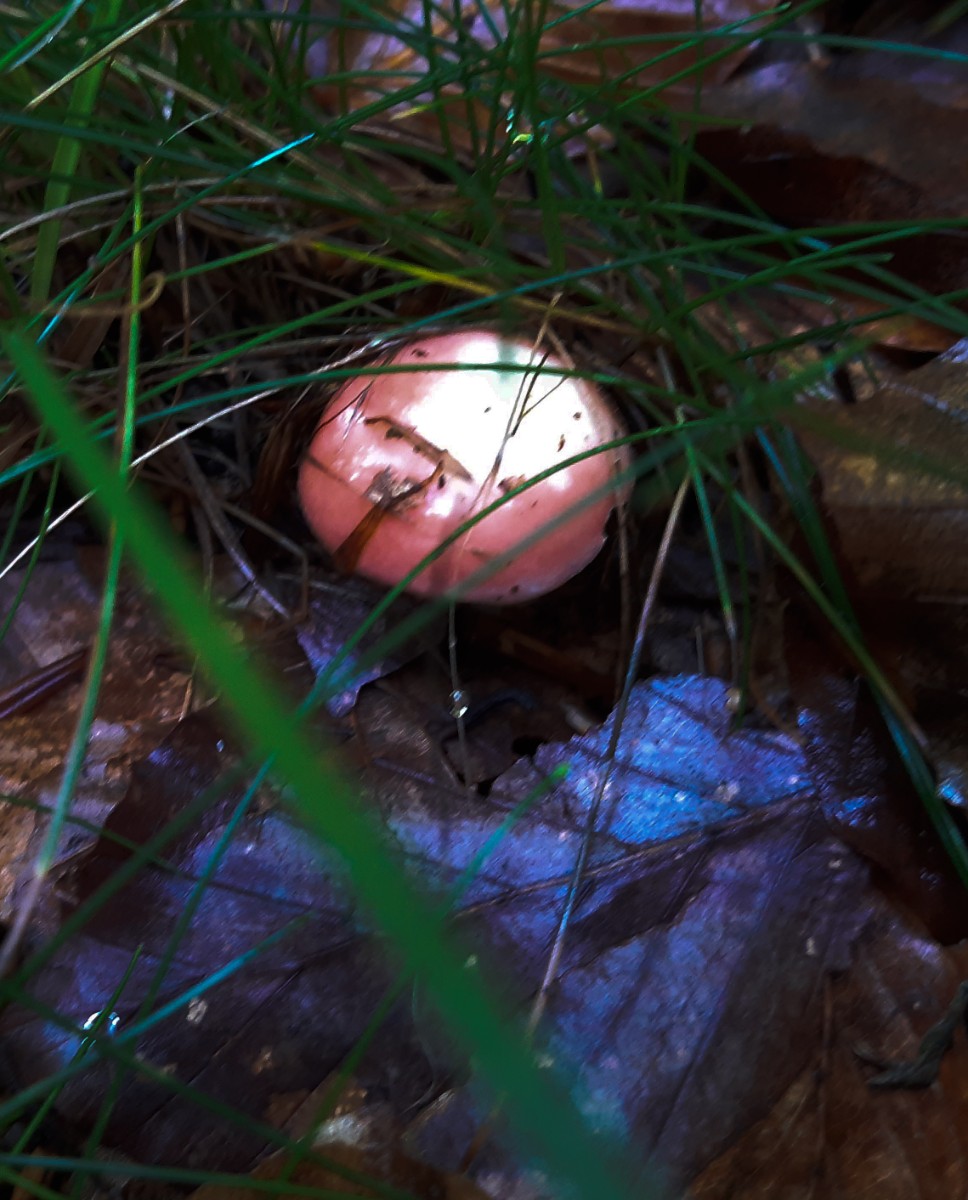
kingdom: Fungi
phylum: Basidiomycota
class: Agaricomycetes
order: Russulales
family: Russulaceae
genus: Russula
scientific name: Russula
